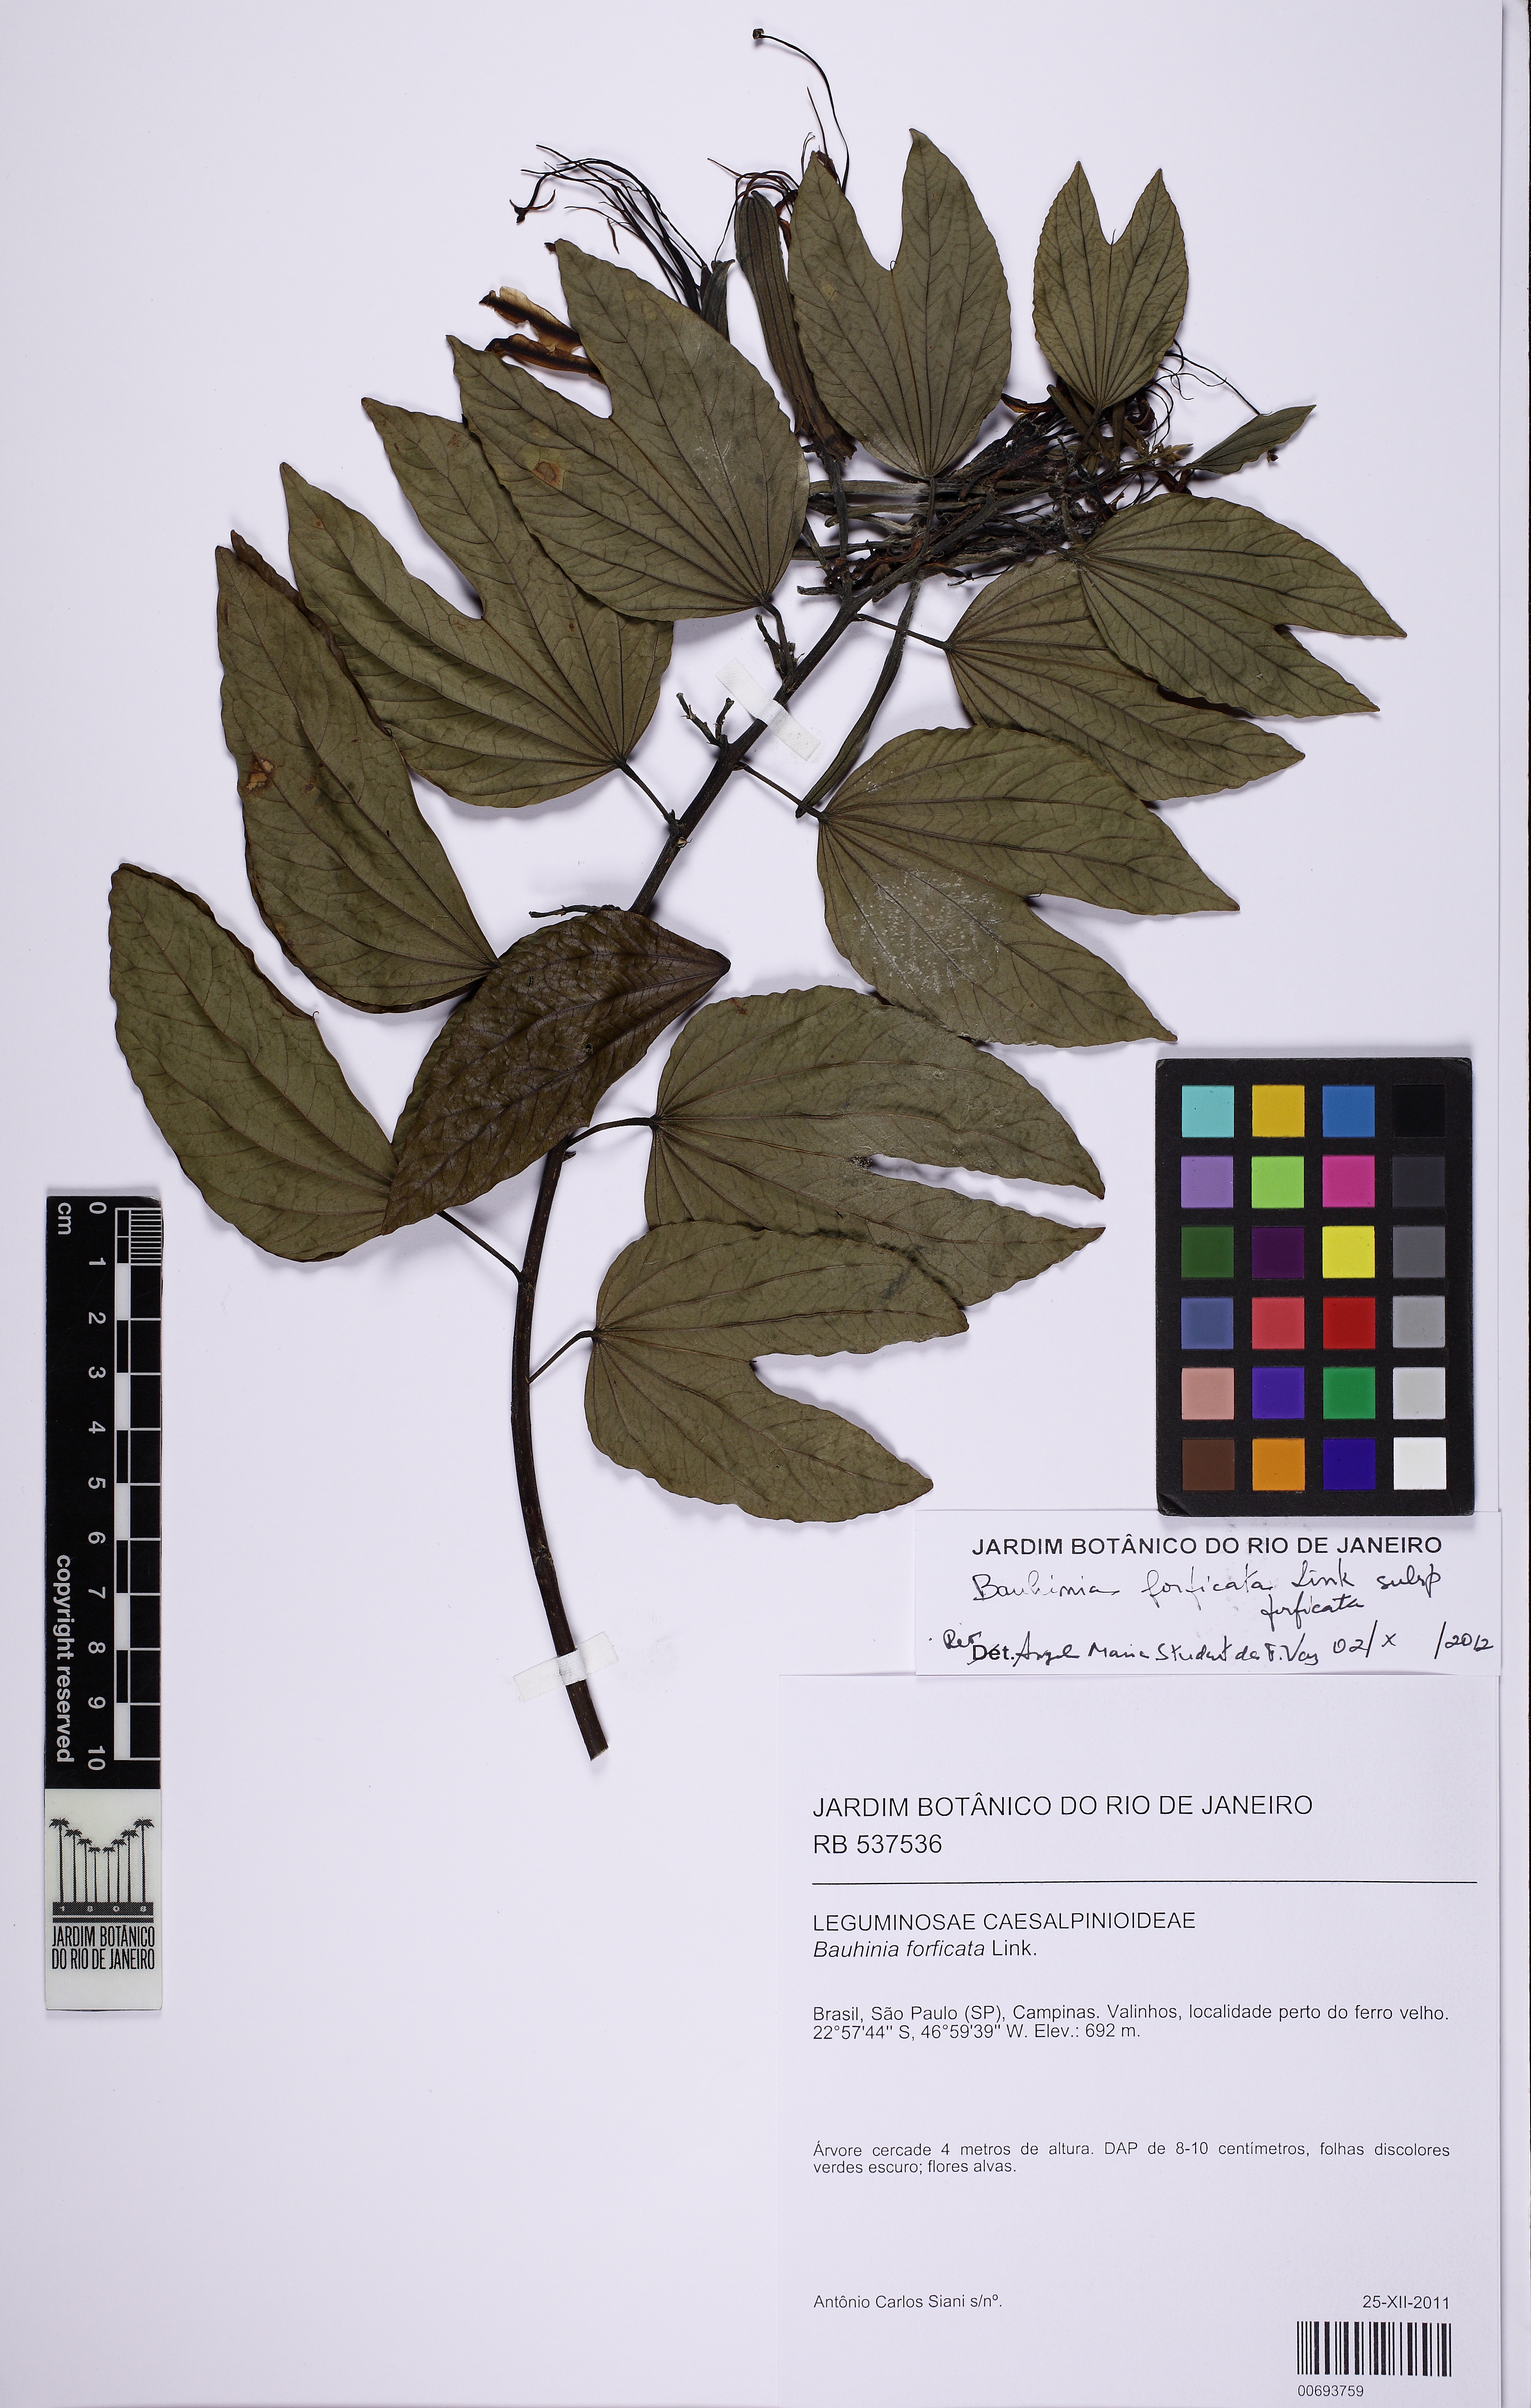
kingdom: Plantae
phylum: Tracheophyta
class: Magnoliopsida
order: Fabales
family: Fabaceae
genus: Bauhinia
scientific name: Bauhinia forficata
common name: Orchid tree
